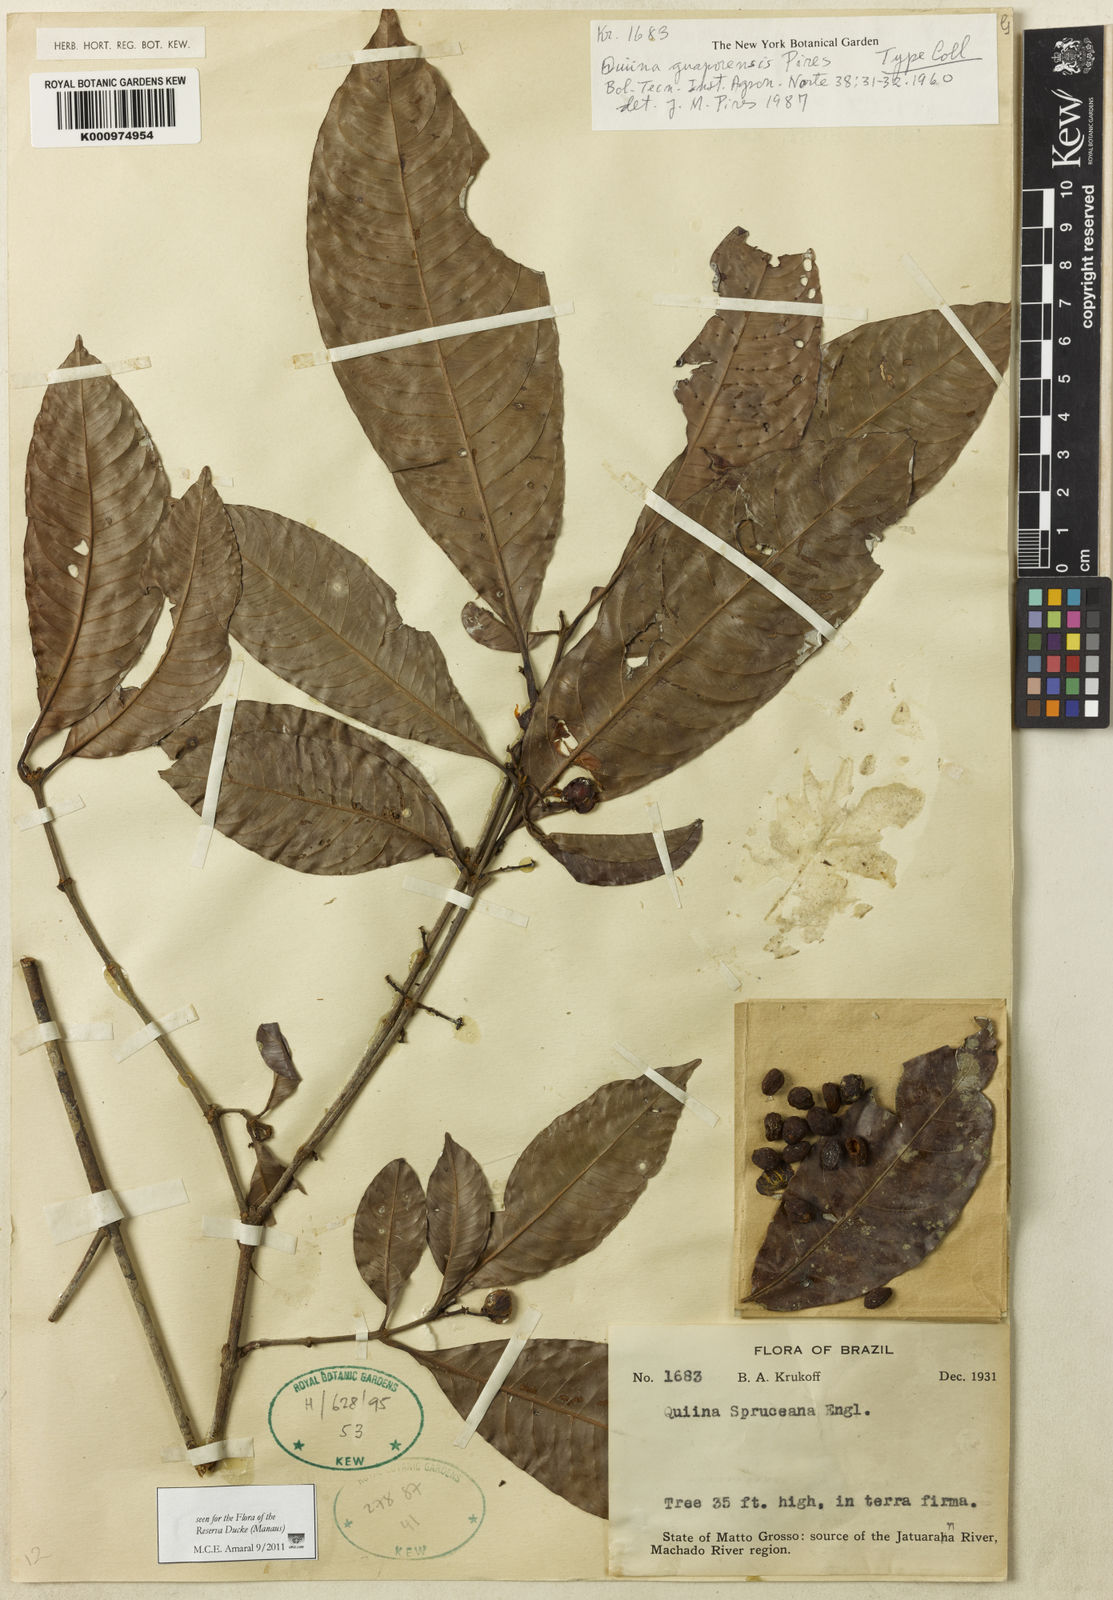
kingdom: Plantae
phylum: Tracheophyta
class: Magnoliopsida
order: Malpighiales
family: Quiinaceae
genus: Quiina
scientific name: Quiina cruegeriana
